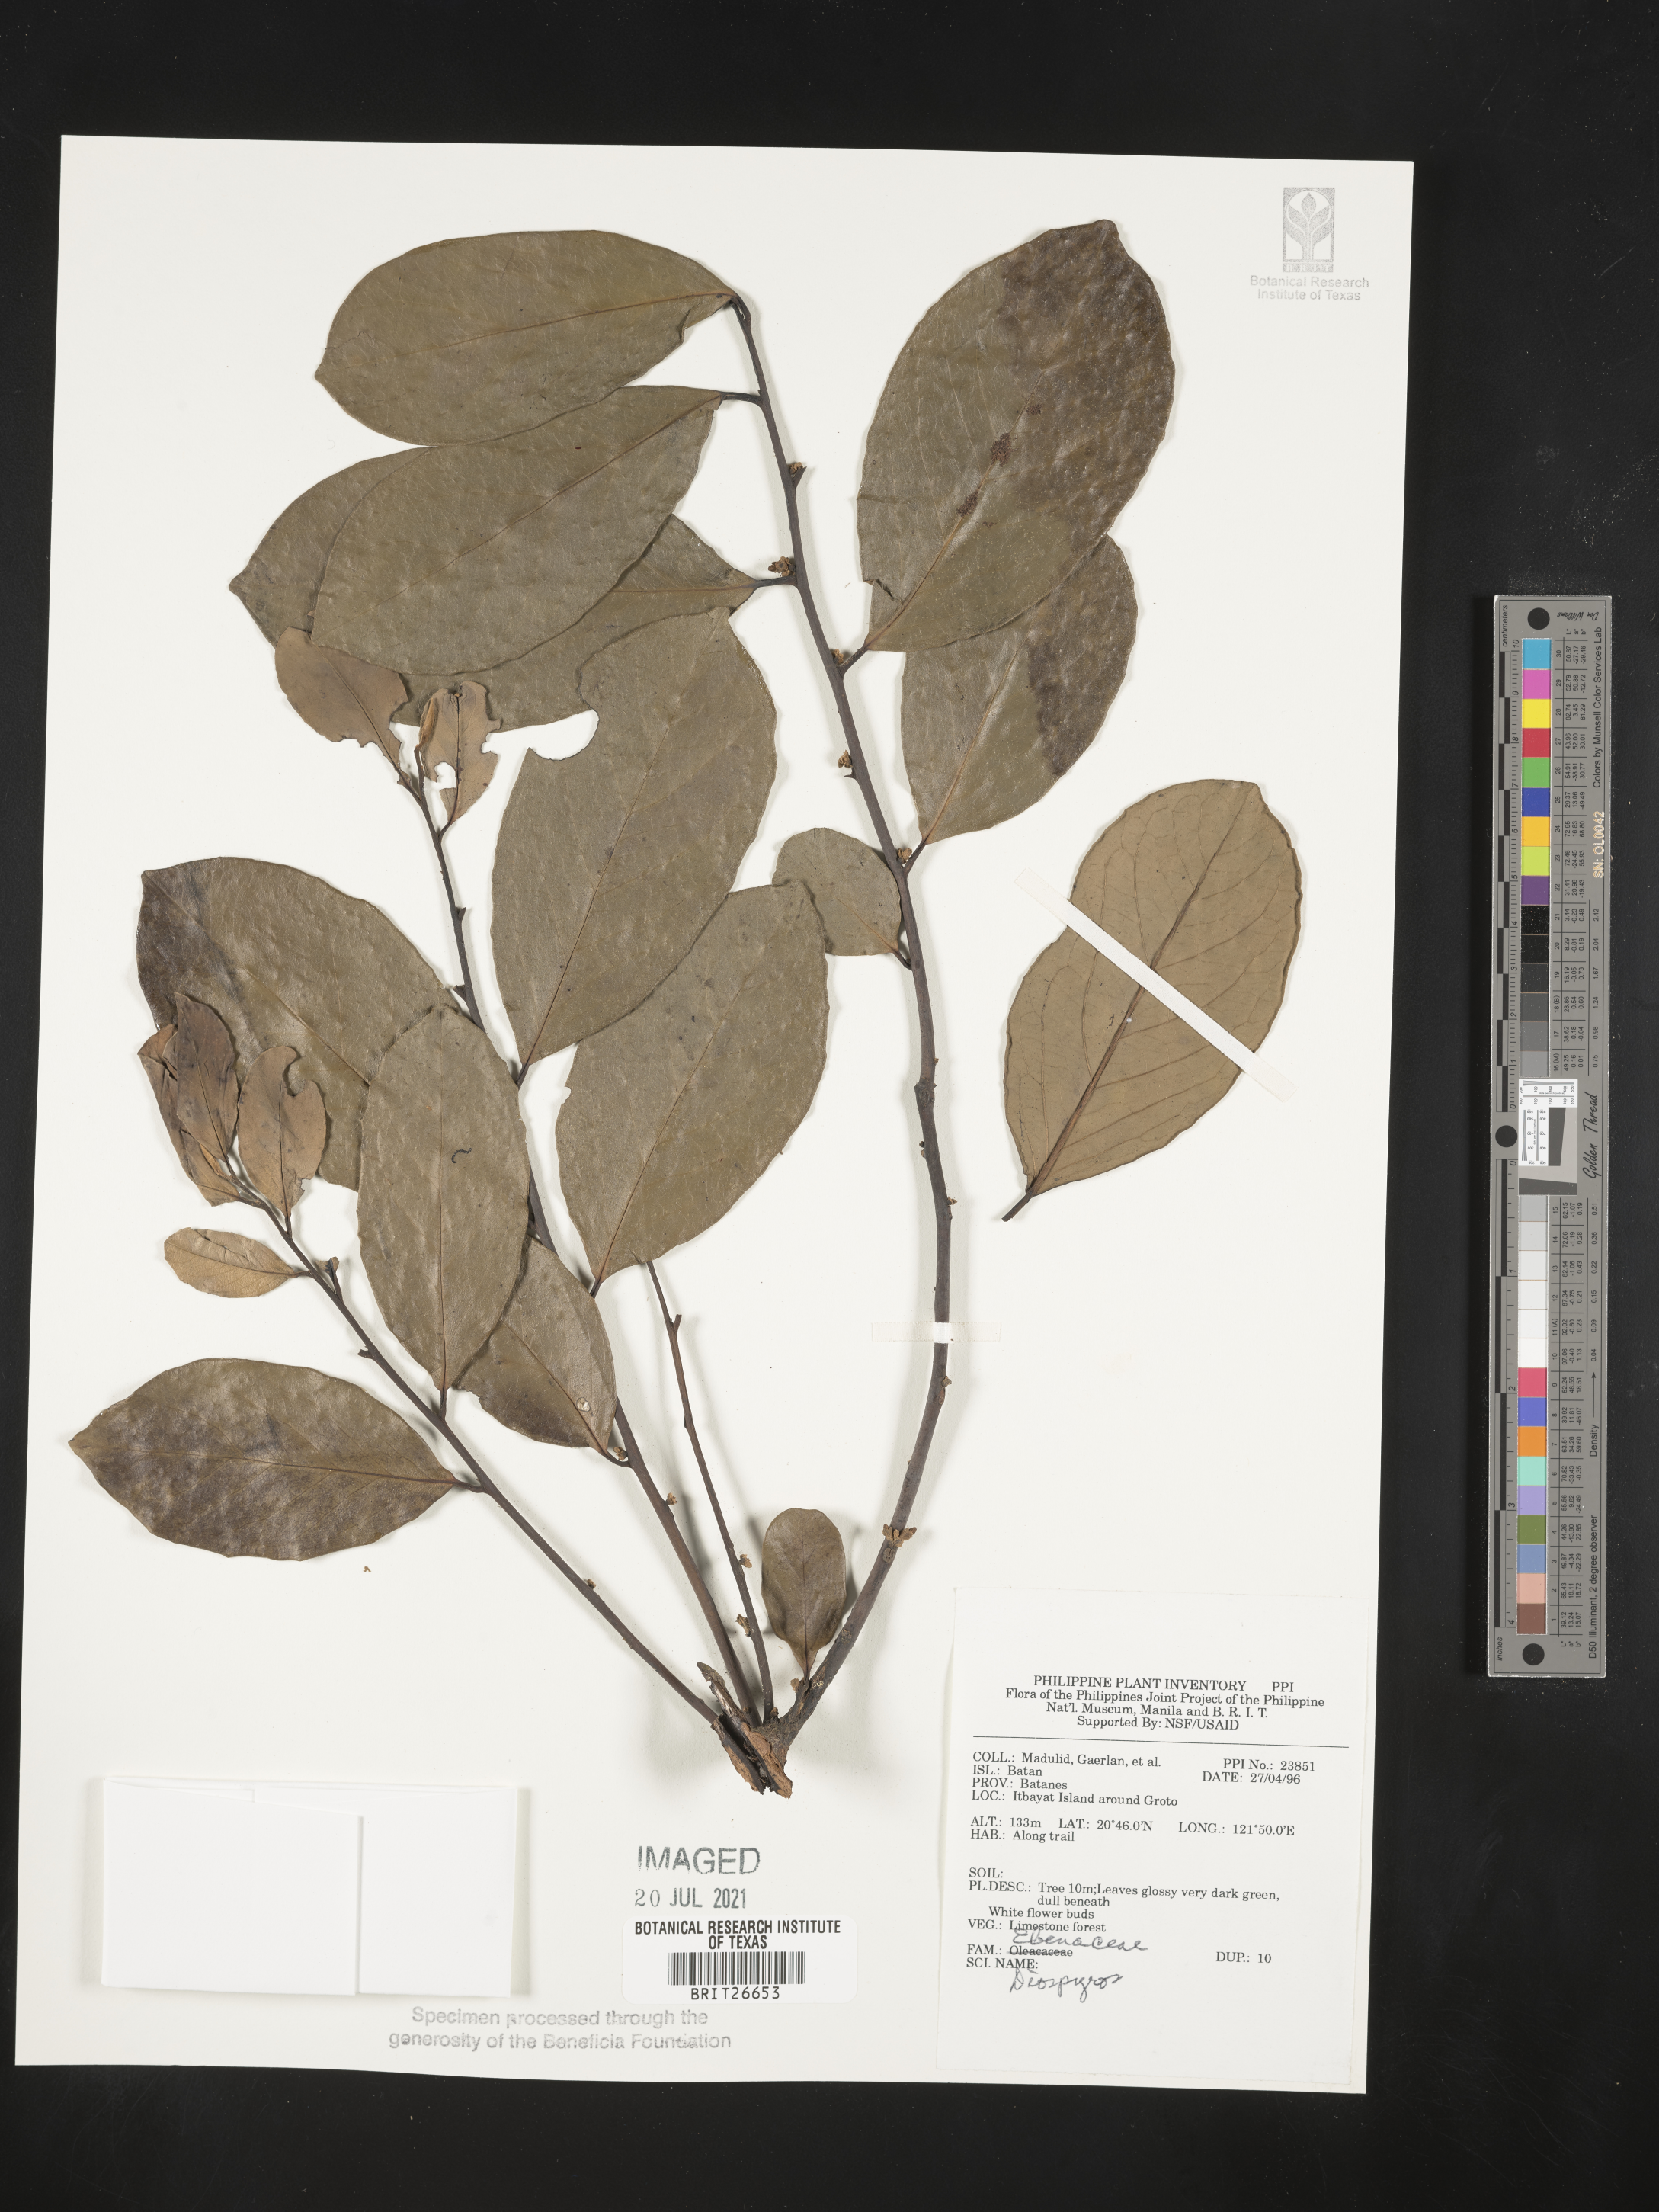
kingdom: Plantae
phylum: Tracheophyta
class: Magnoliopsida
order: Ericales
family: Ebenaceae
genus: Diospyros
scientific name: Diospyros
